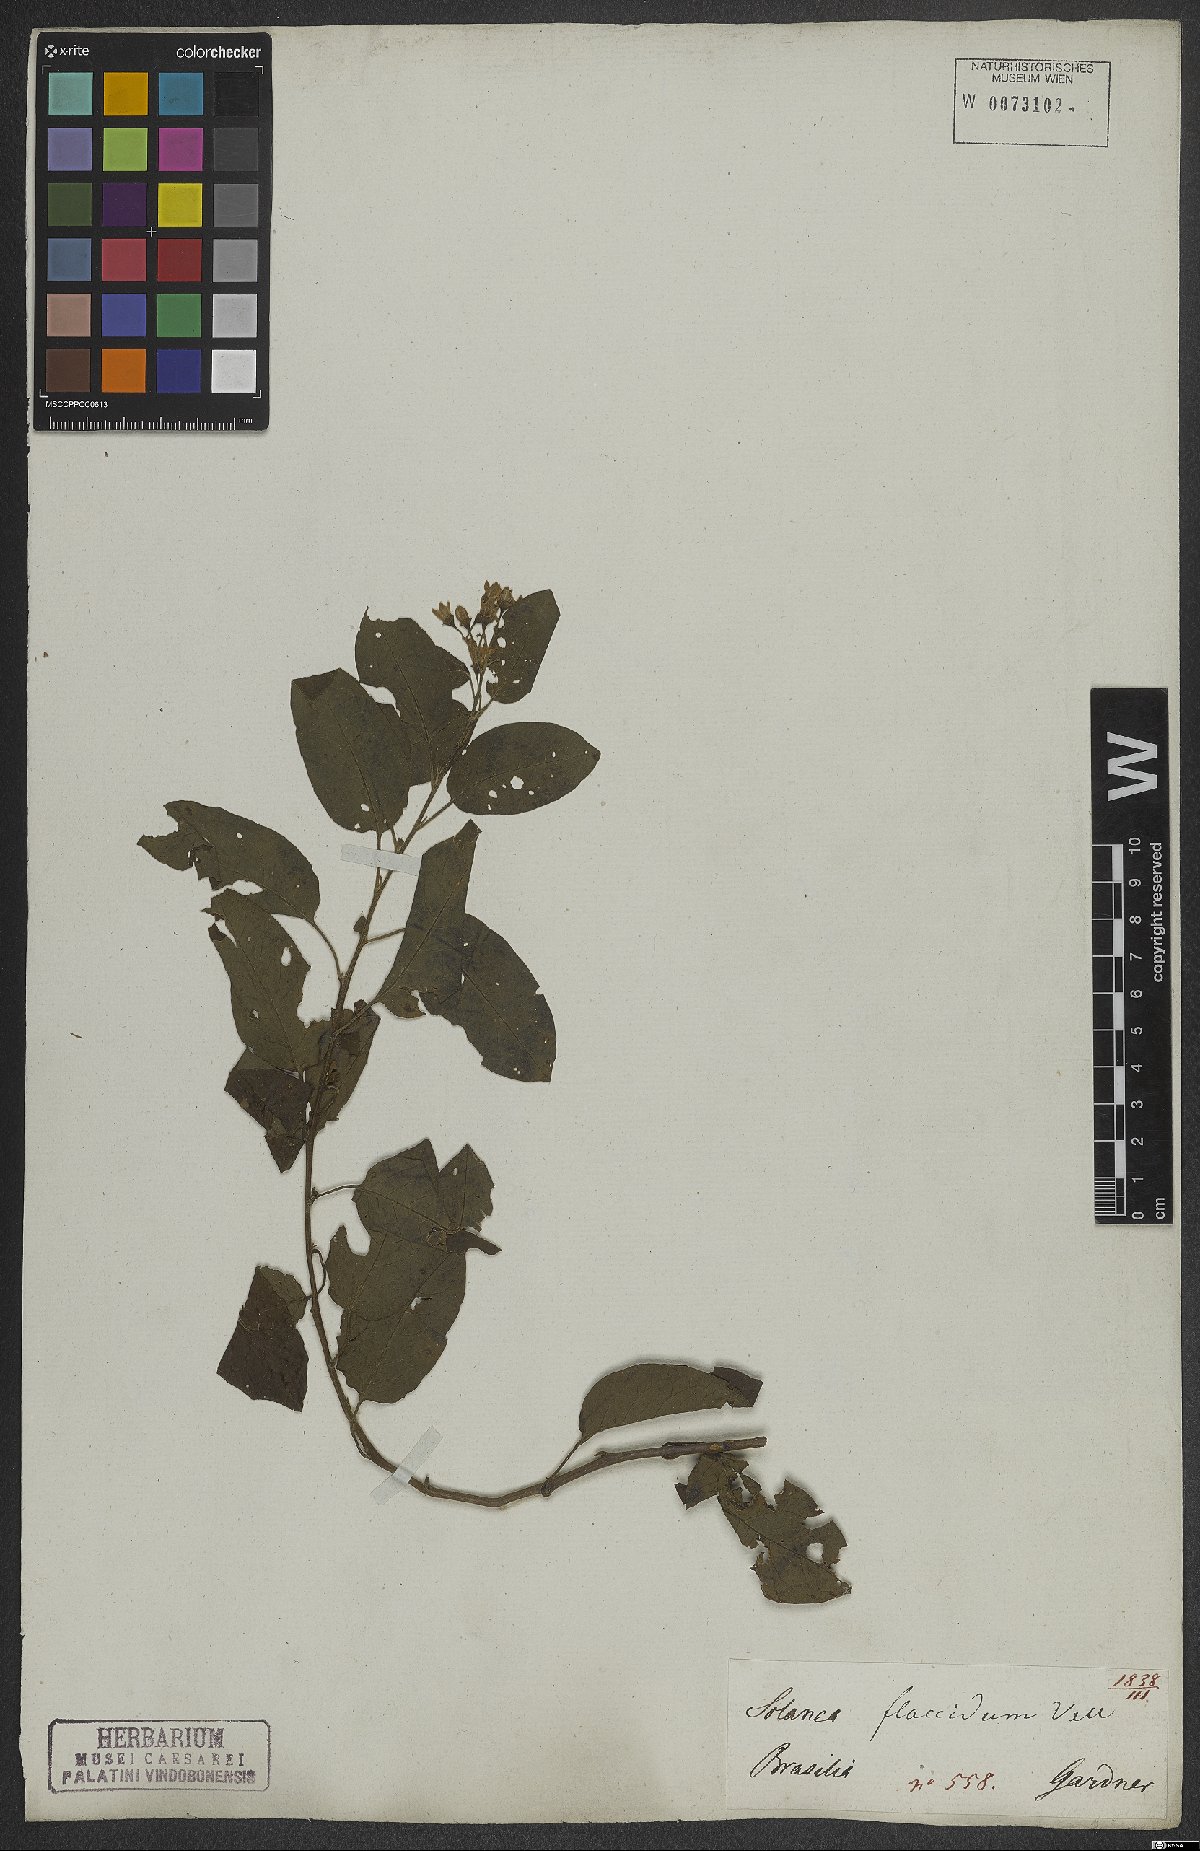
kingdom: Plantae
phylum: Tracheophyta
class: Magnoliopsida
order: Solanales
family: Solanaceae
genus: Solanum
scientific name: Solanum flaccidum
